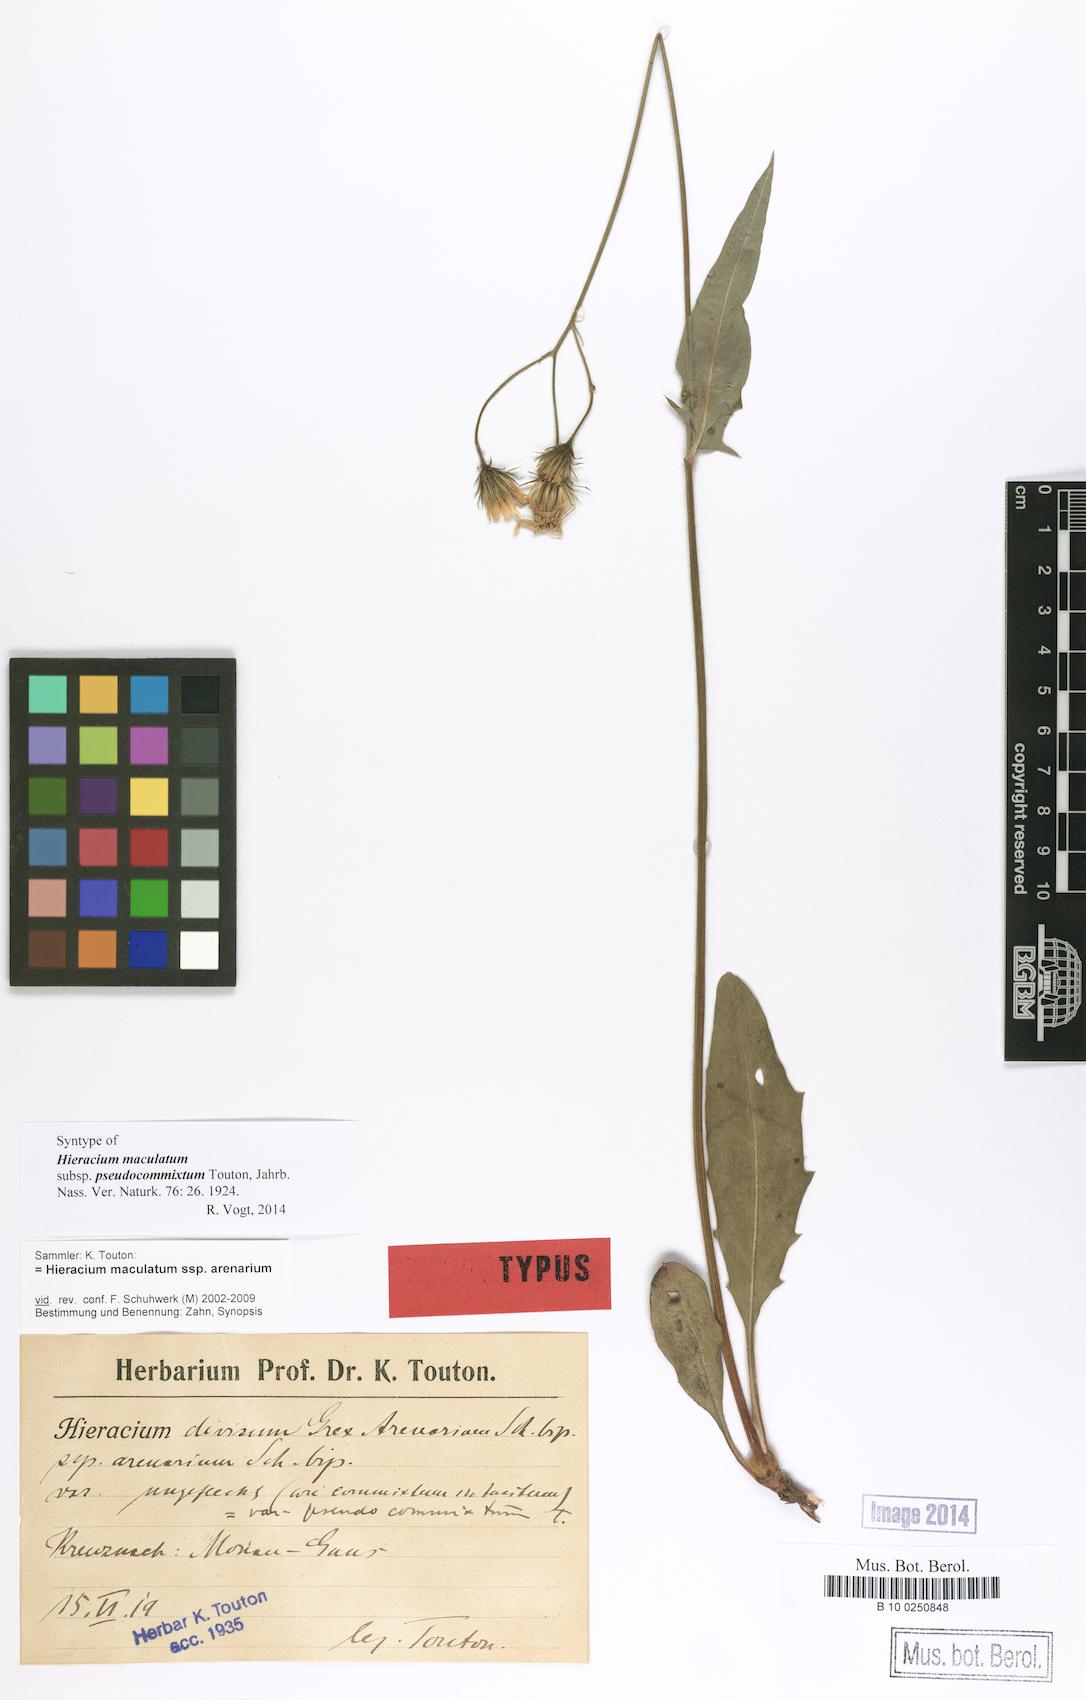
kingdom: Plantae
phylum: Tracheophyta
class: Magnoliopsida
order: Asterales
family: Asteraceae
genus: Hieracium
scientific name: Hieracium maculatum
